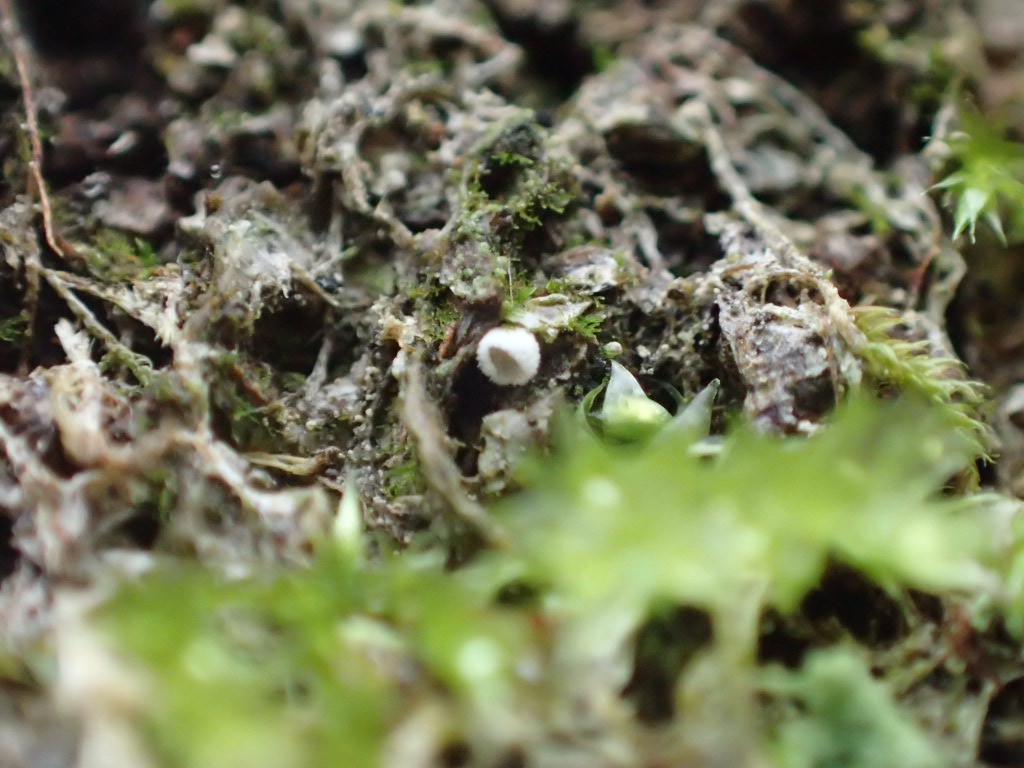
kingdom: Fungi
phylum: Basidiomycota
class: Agaricomycetes
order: Agaricales
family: Chromocyphellaceae
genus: Chromocyphella
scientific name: Chromocyphella muscicola
